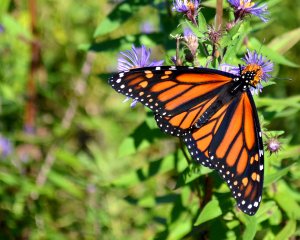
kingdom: Animalia
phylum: Arthropoda
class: Insecta
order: Lepidoptera
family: Nymphalidae
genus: Danaus
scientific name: Danaus plexippus
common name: Monarch
